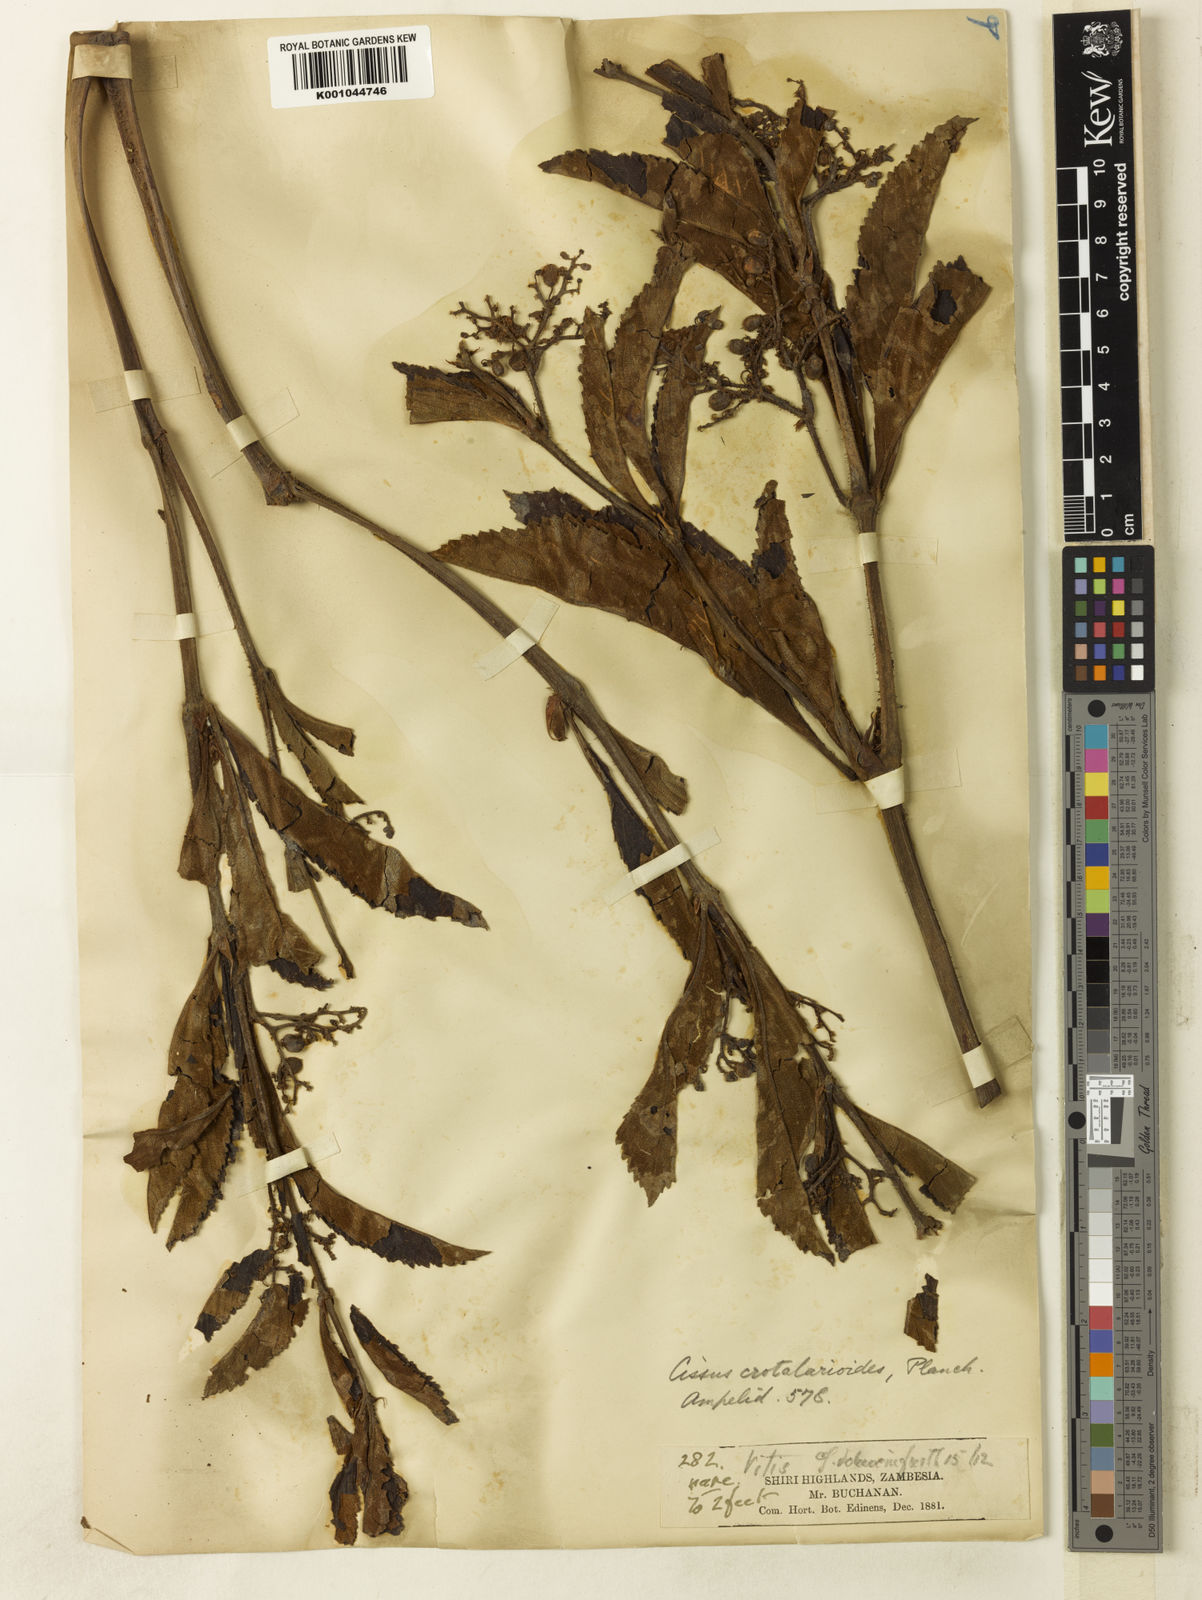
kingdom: Plantae
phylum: Tracheophyta
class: Magnoliopsida
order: Vitales
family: Vitaceae
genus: Cyphostemma
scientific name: Cyphostemma crotalarioides
